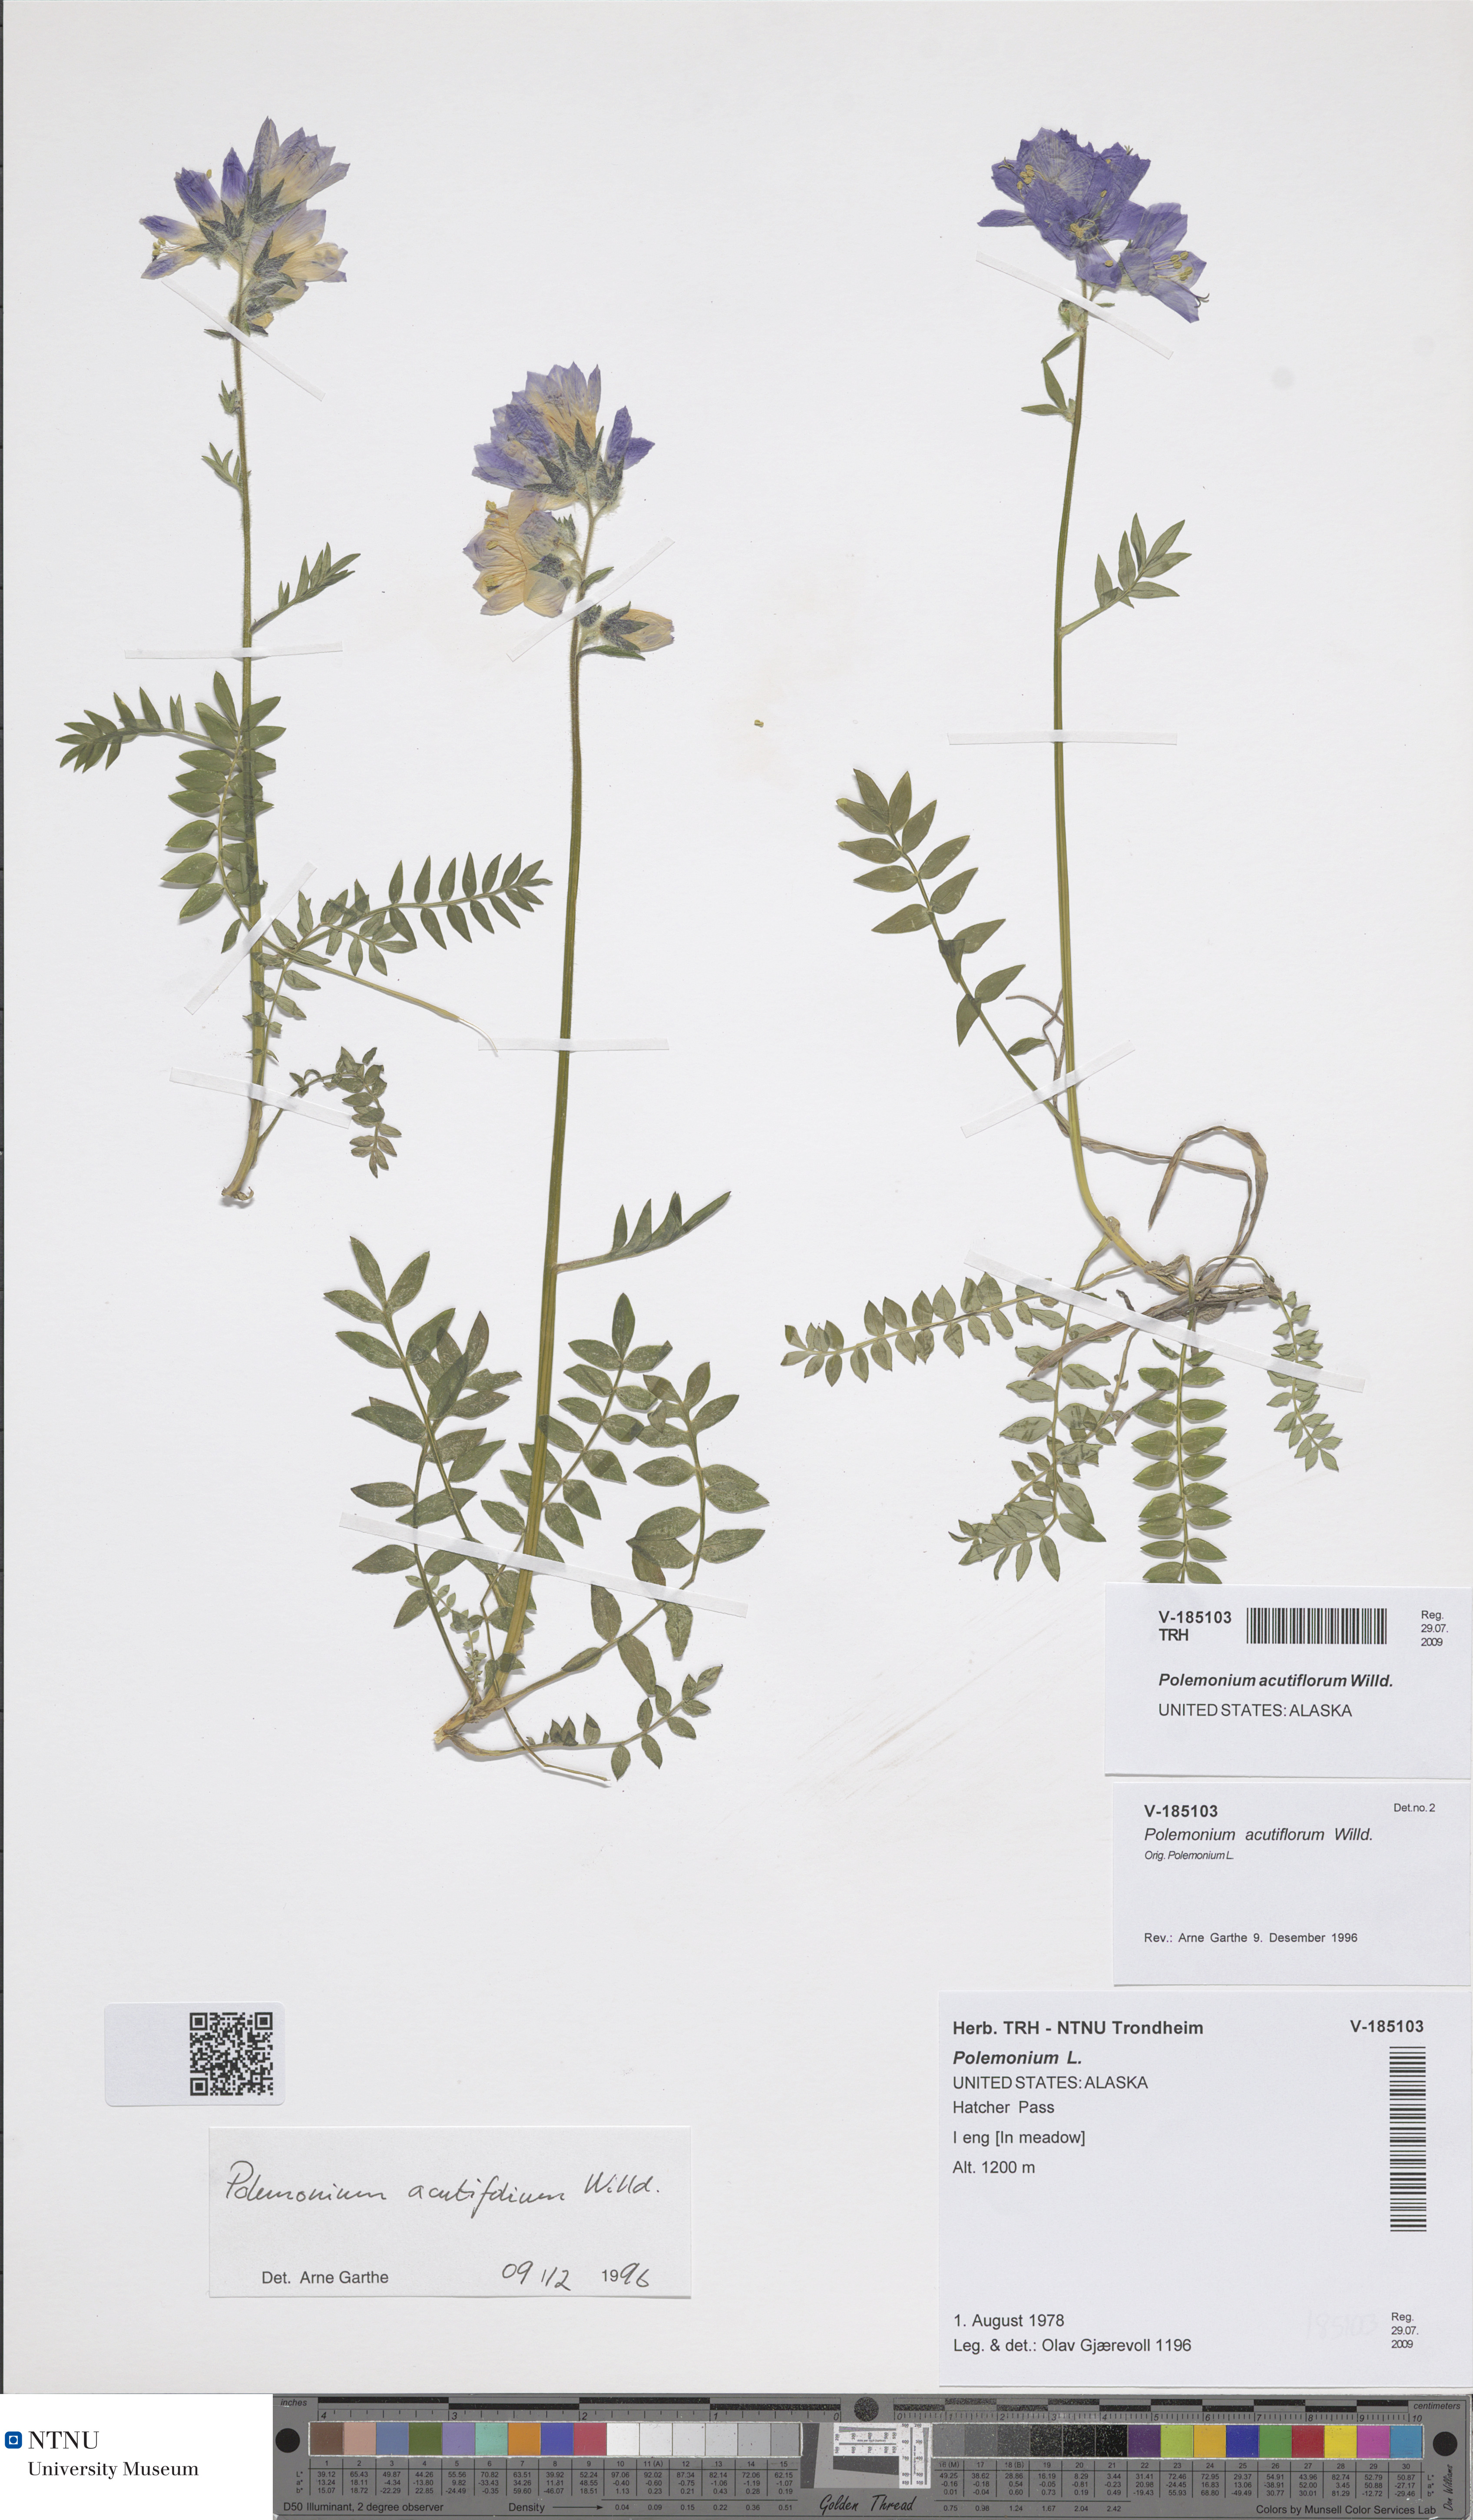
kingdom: Plantae
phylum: Tracheophyta
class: Magnoliopsida
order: Ericales
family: Polemoniaceae
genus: Polemonium
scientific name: Polemonium villosum
